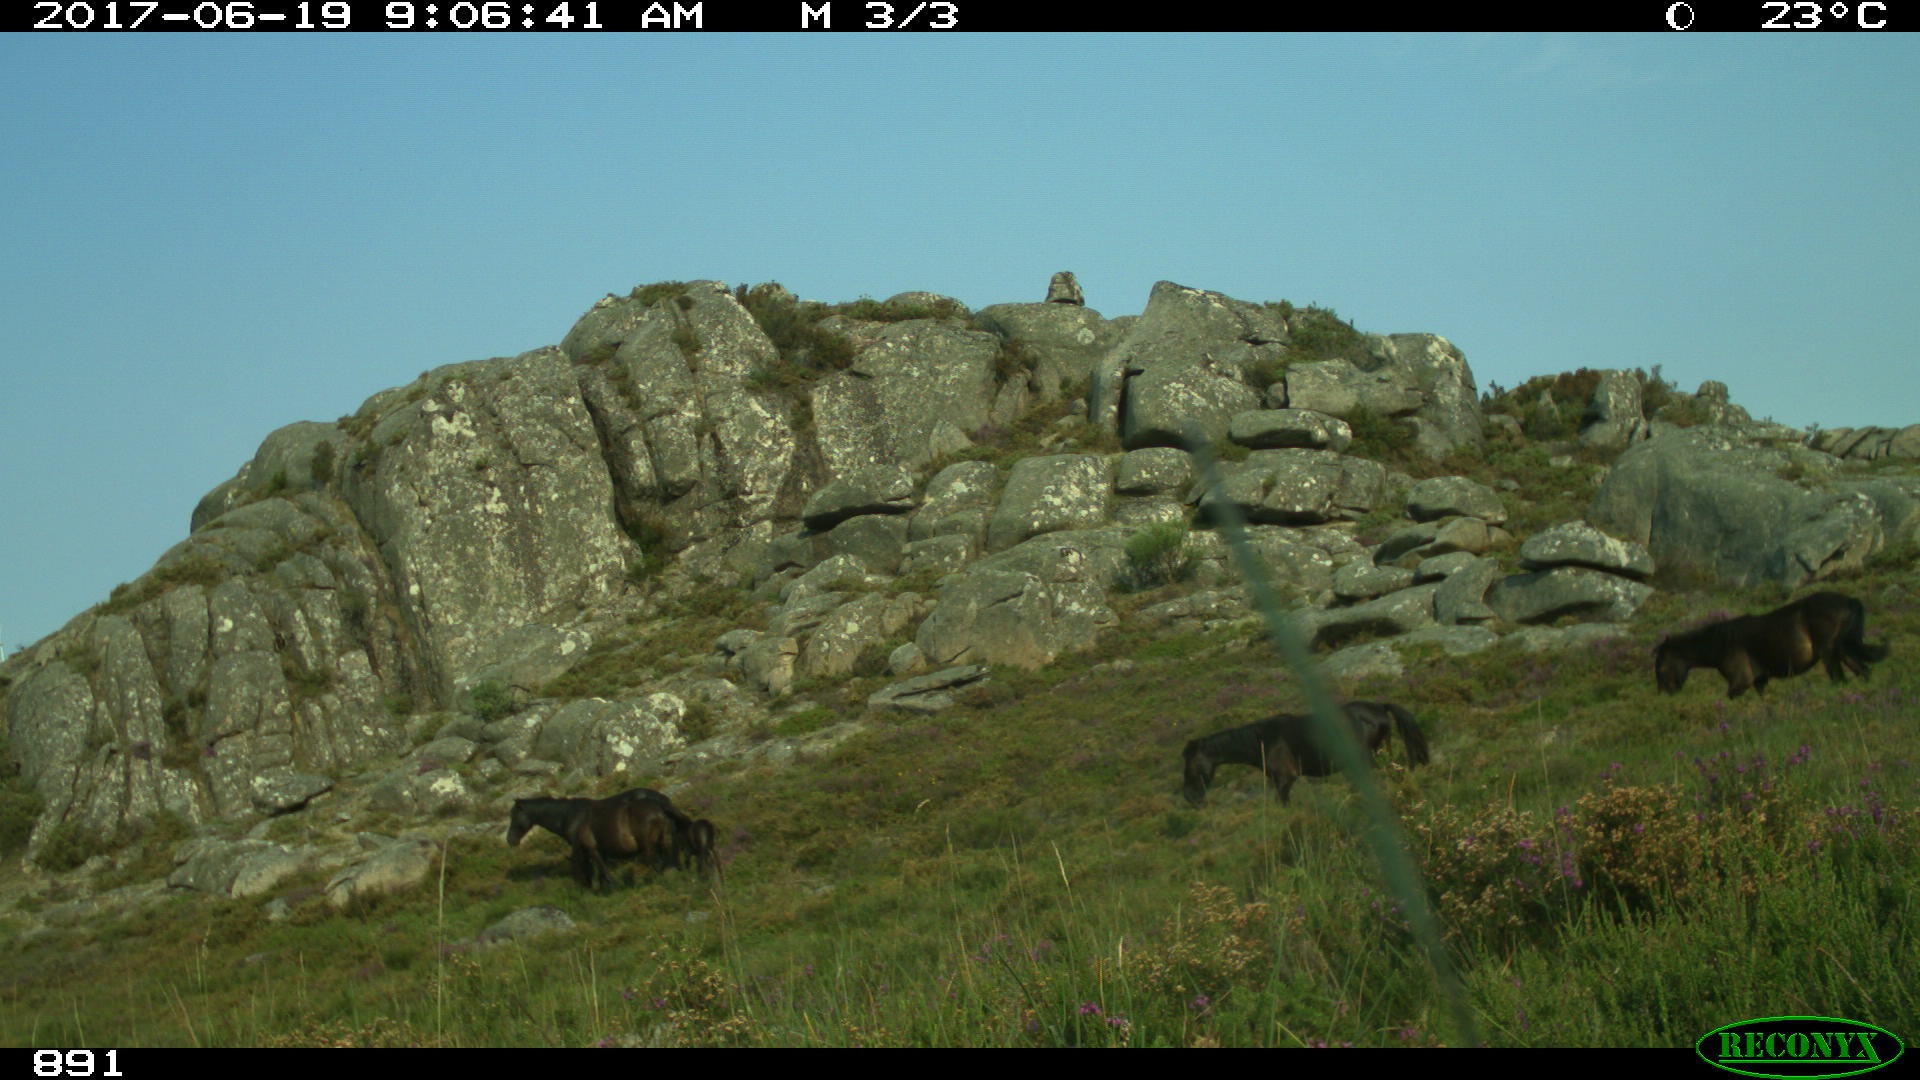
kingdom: Animalia
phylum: Chordata
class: Mammalia
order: Perissodactyla
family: Equidae
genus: Equus
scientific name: Equus caballus
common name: Horse
